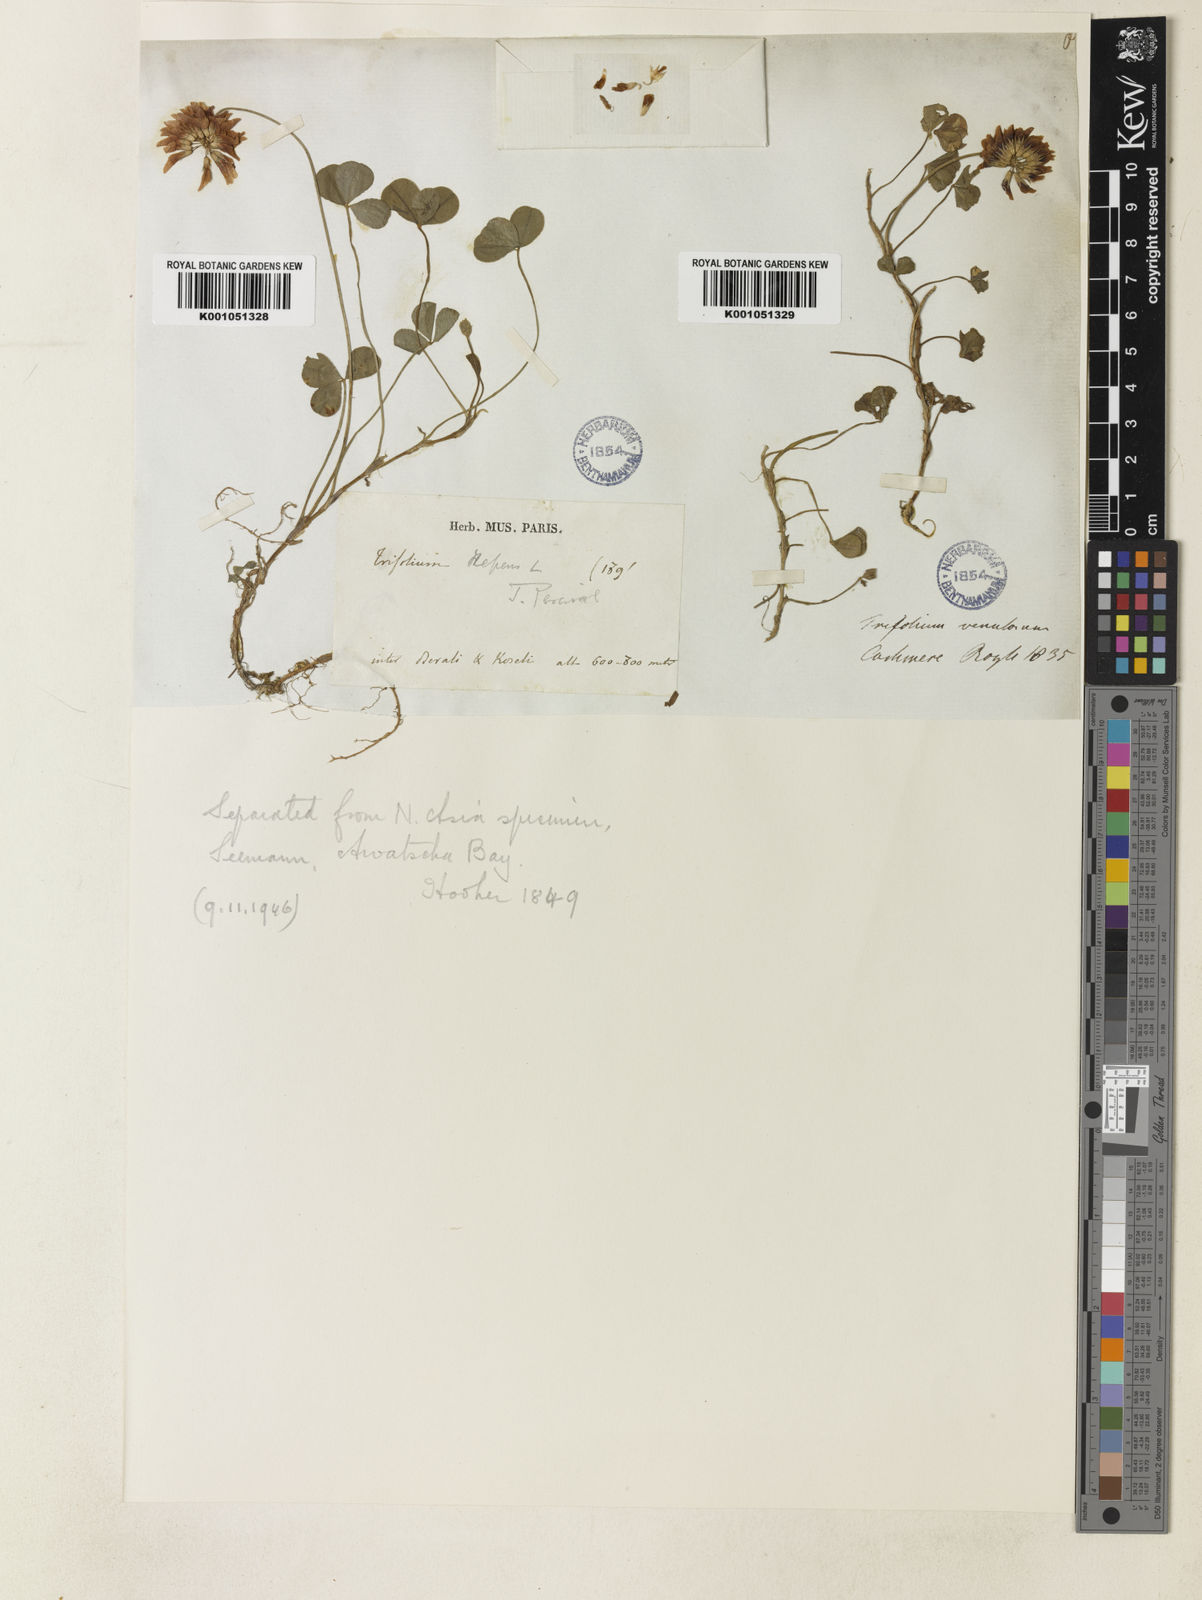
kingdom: Plantae
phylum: Tracheophyta
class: Magnoliopsida
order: Fabales
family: Fabaceae
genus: Trifolium
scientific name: Trifolium repens
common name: White clover
